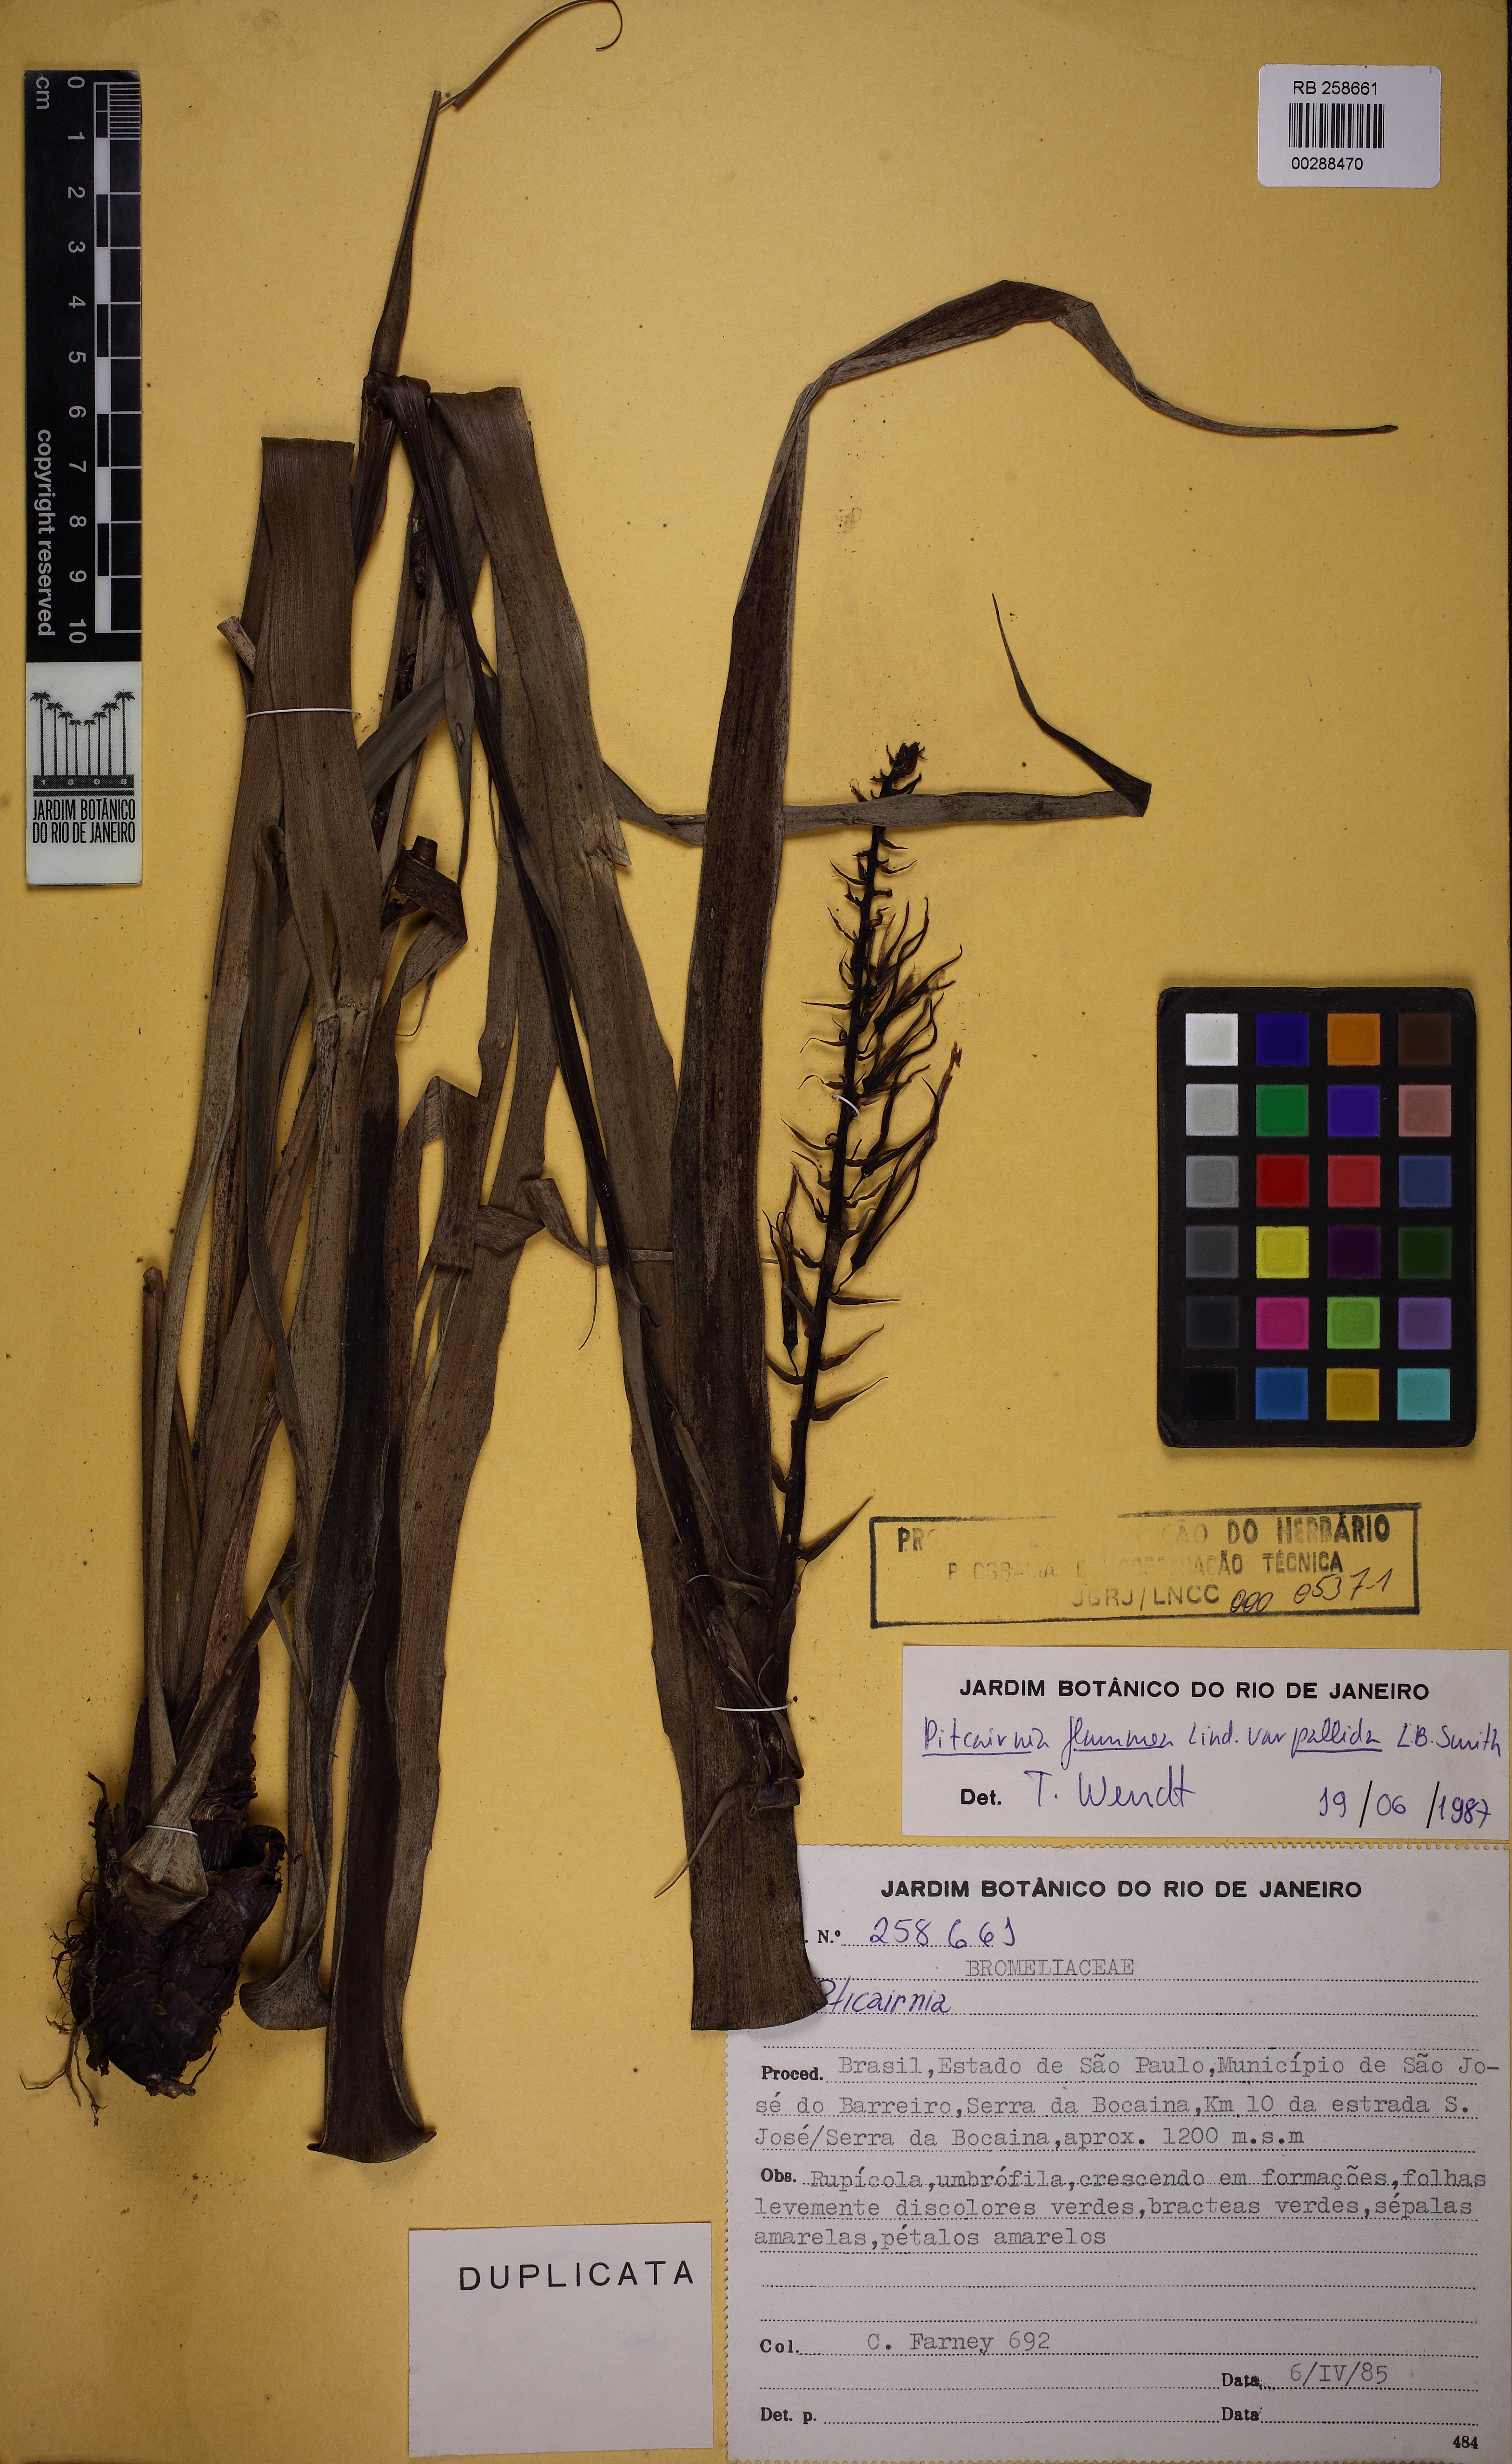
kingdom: Plantae
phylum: Tracheophyta
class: Liliopsida
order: Poales
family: Bromeliaceae
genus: Pitcairnia
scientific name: Pitcairnia flammea
